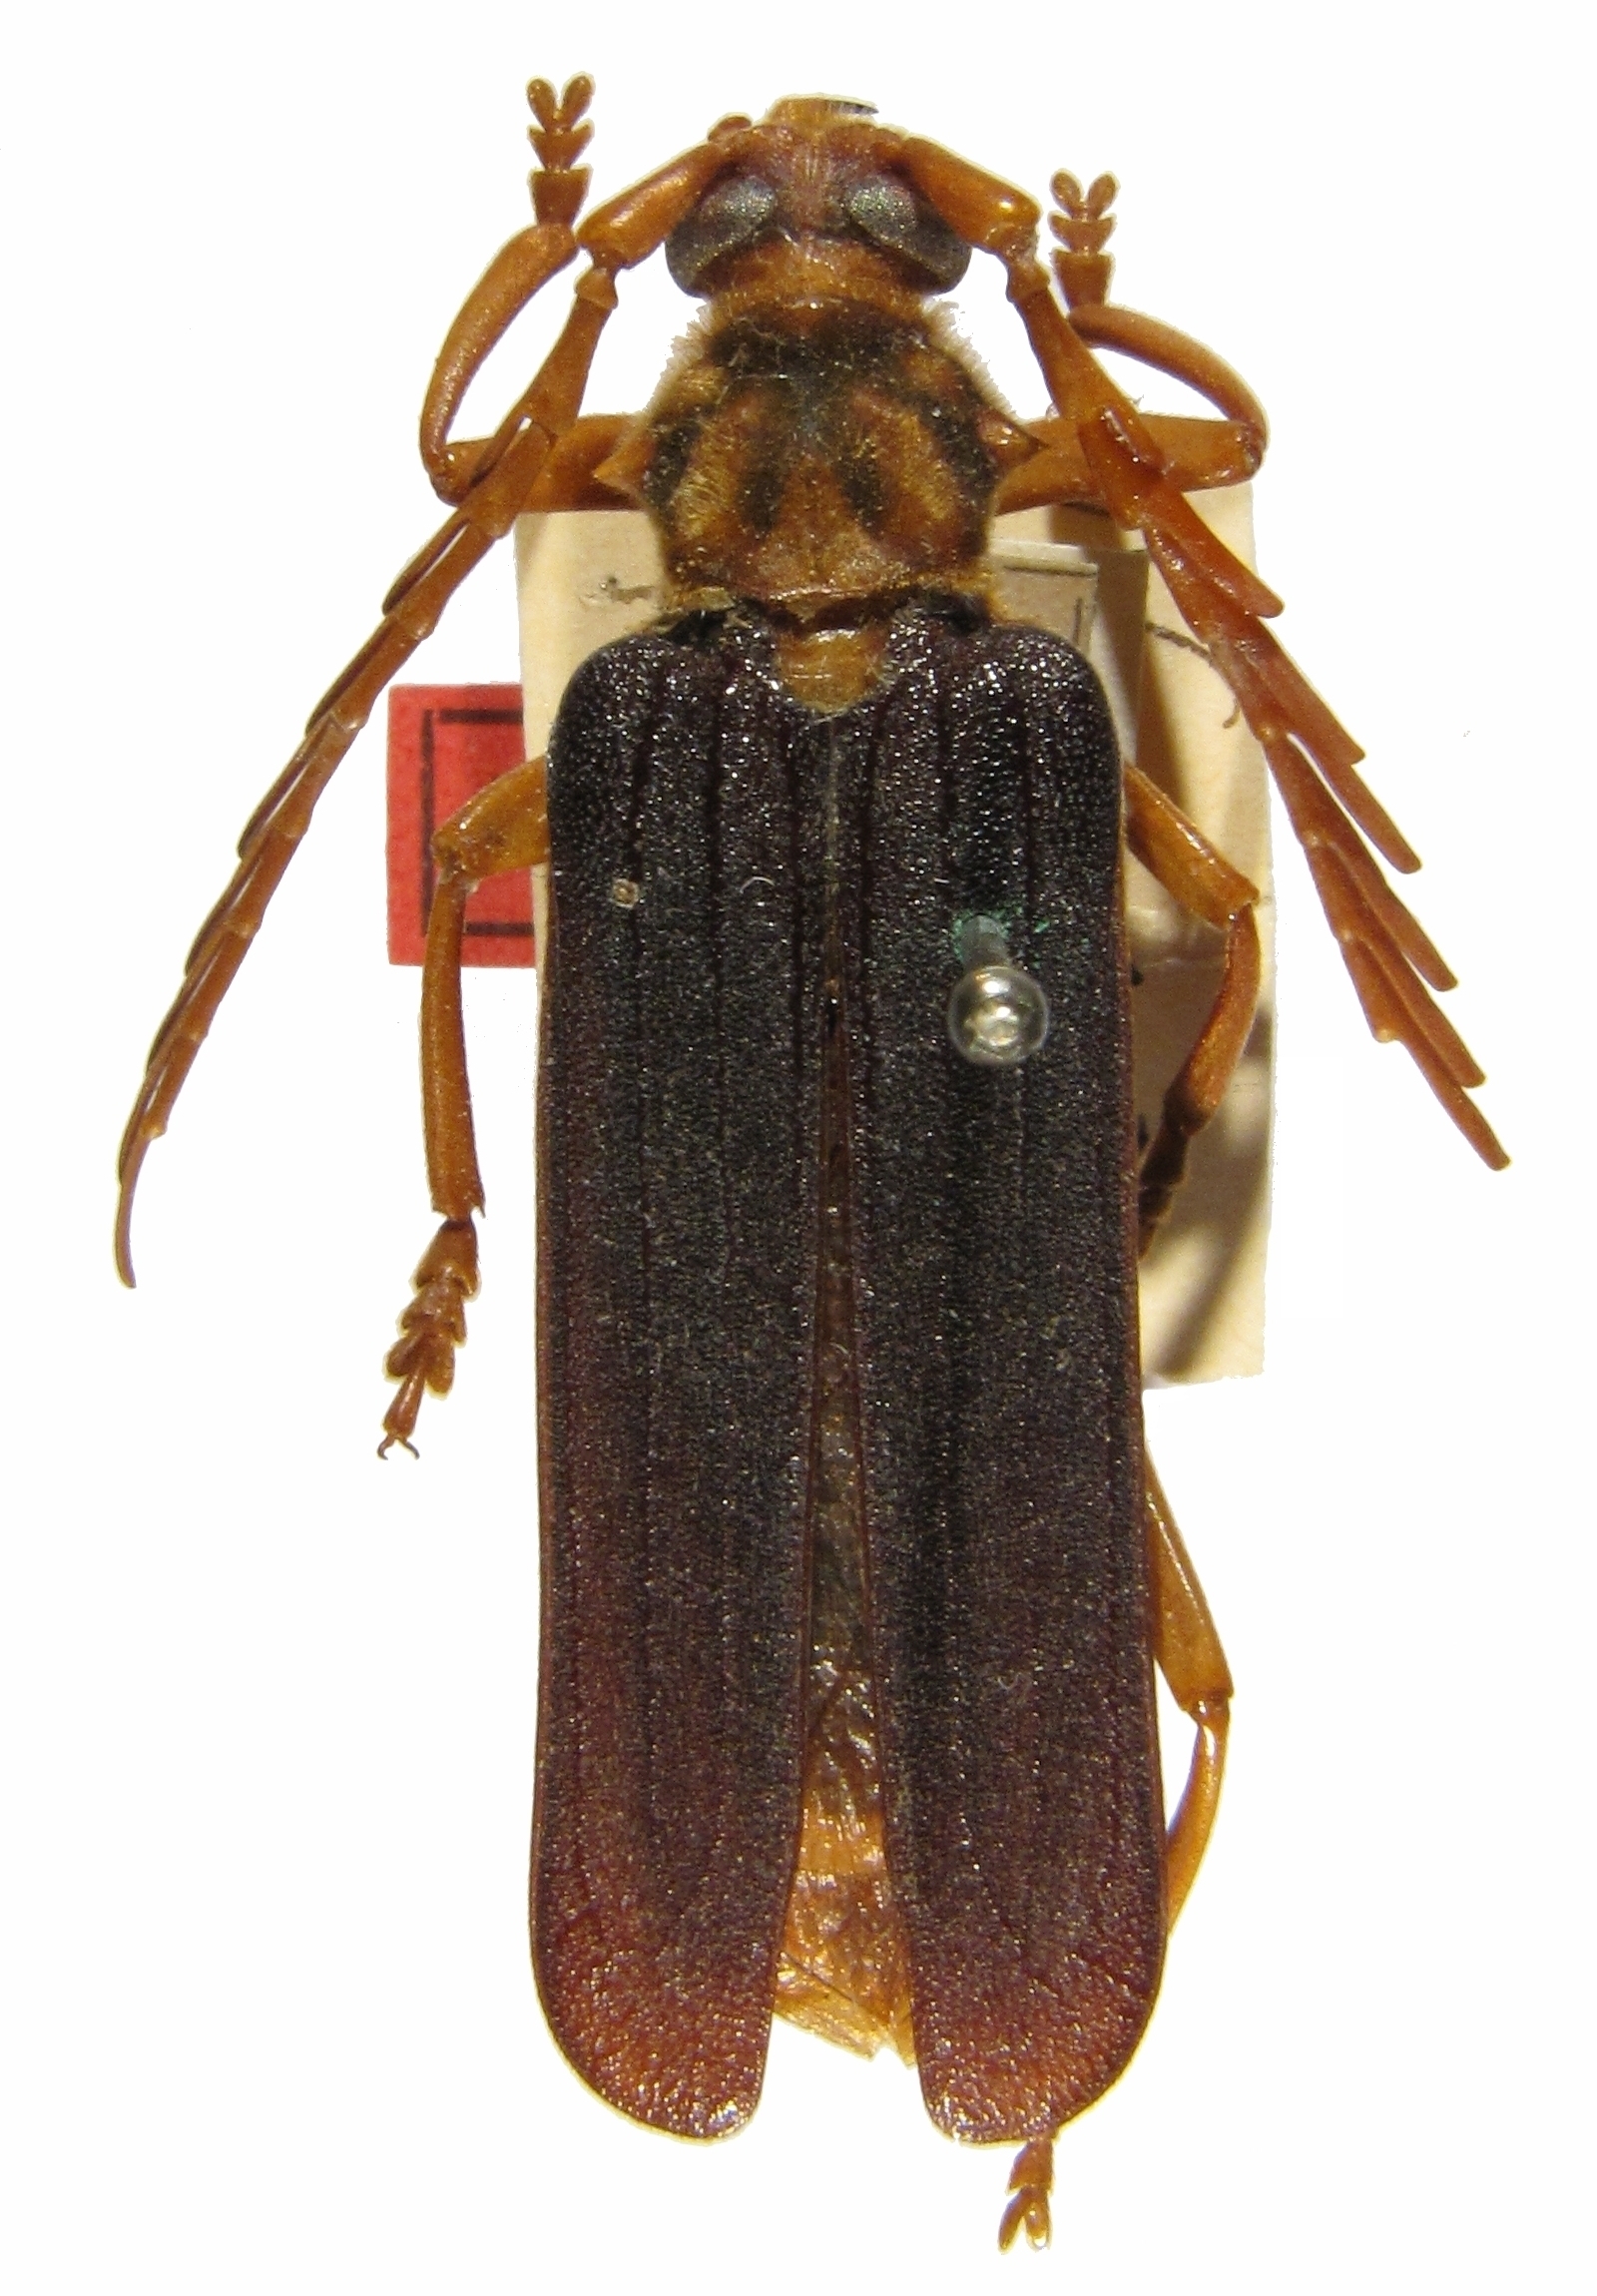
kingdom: Animalia
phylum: Arthropoda
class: Insecta
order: Coleoptera
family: Cerambycidae
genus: Neoclosterus
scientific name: Neoclosterus opacipennis
